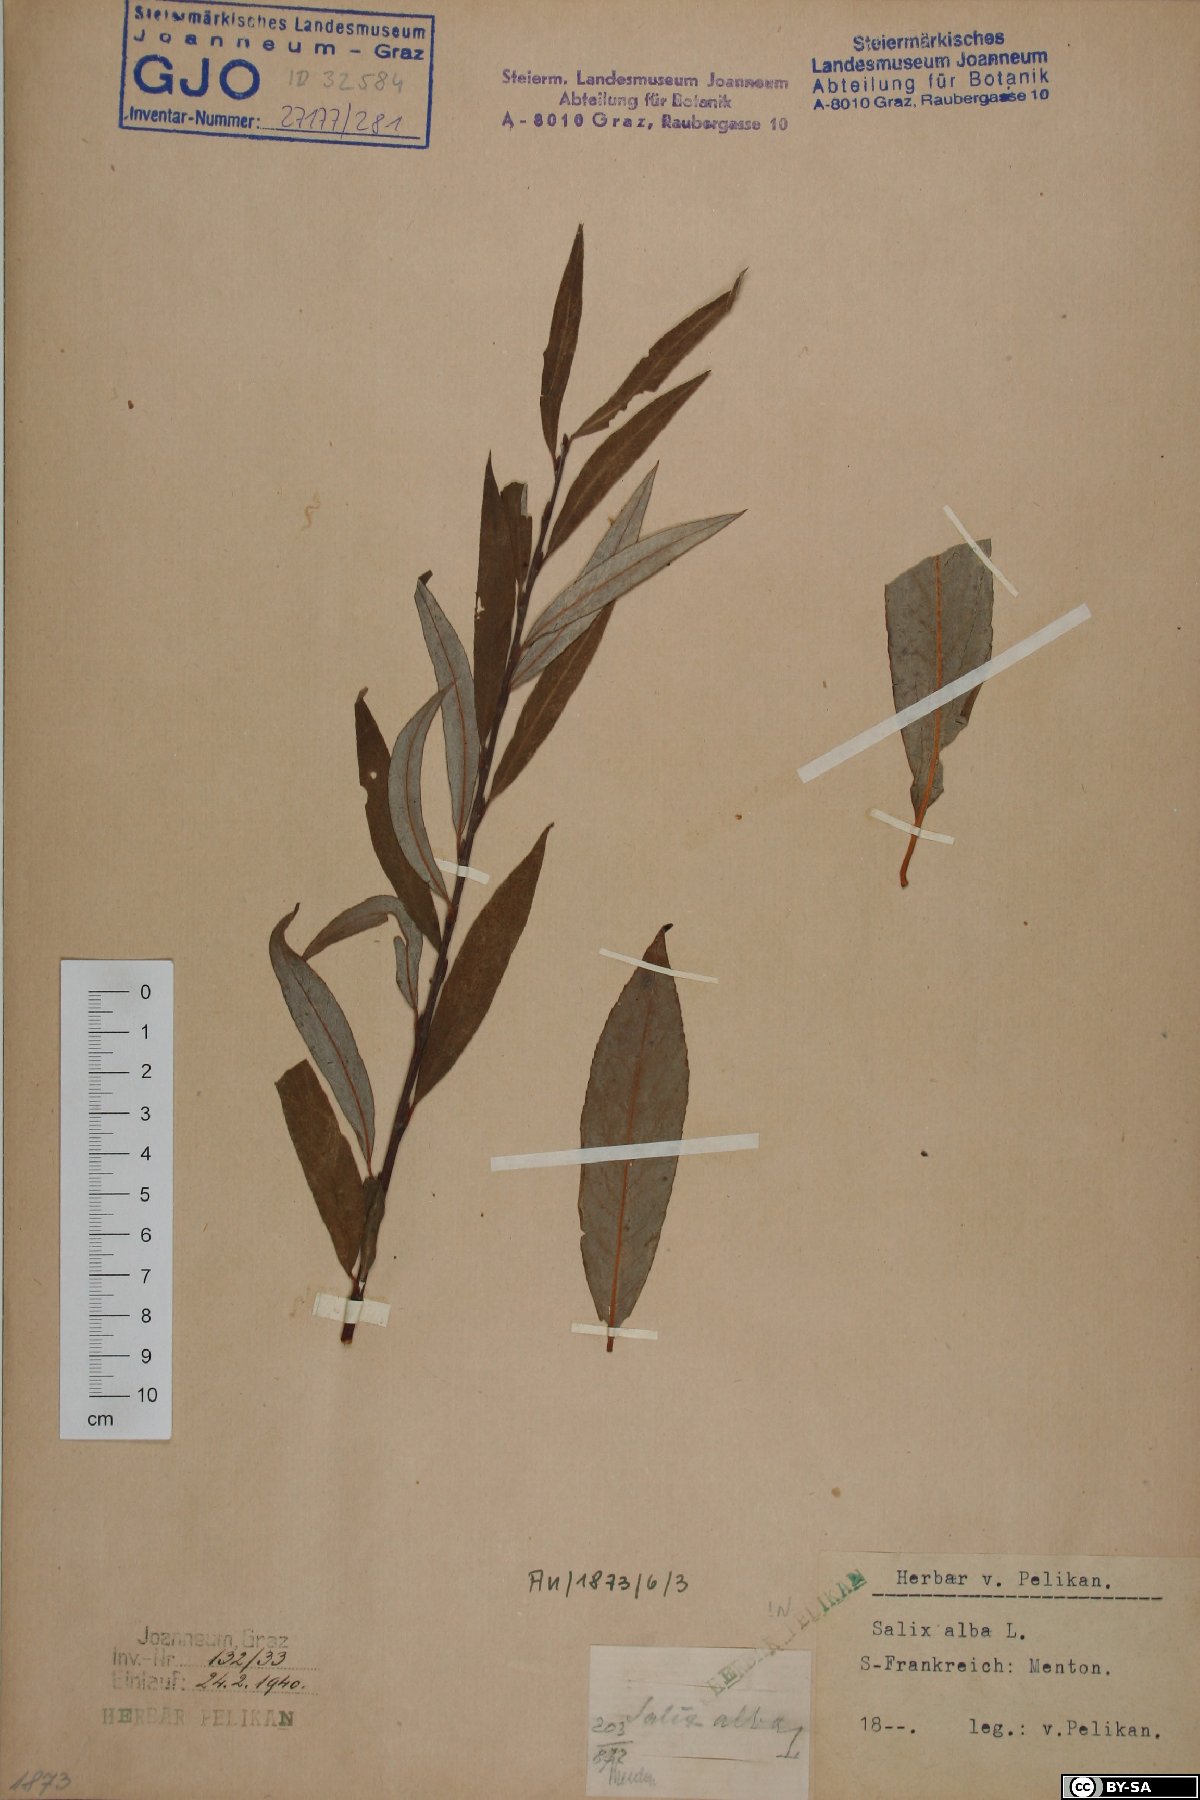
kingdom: Plantae
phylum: Tracheophyta
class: Magnoliopsida
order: Malpighiales
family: Salicaceae
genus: Salix
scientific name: Salix alba
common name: White willow
